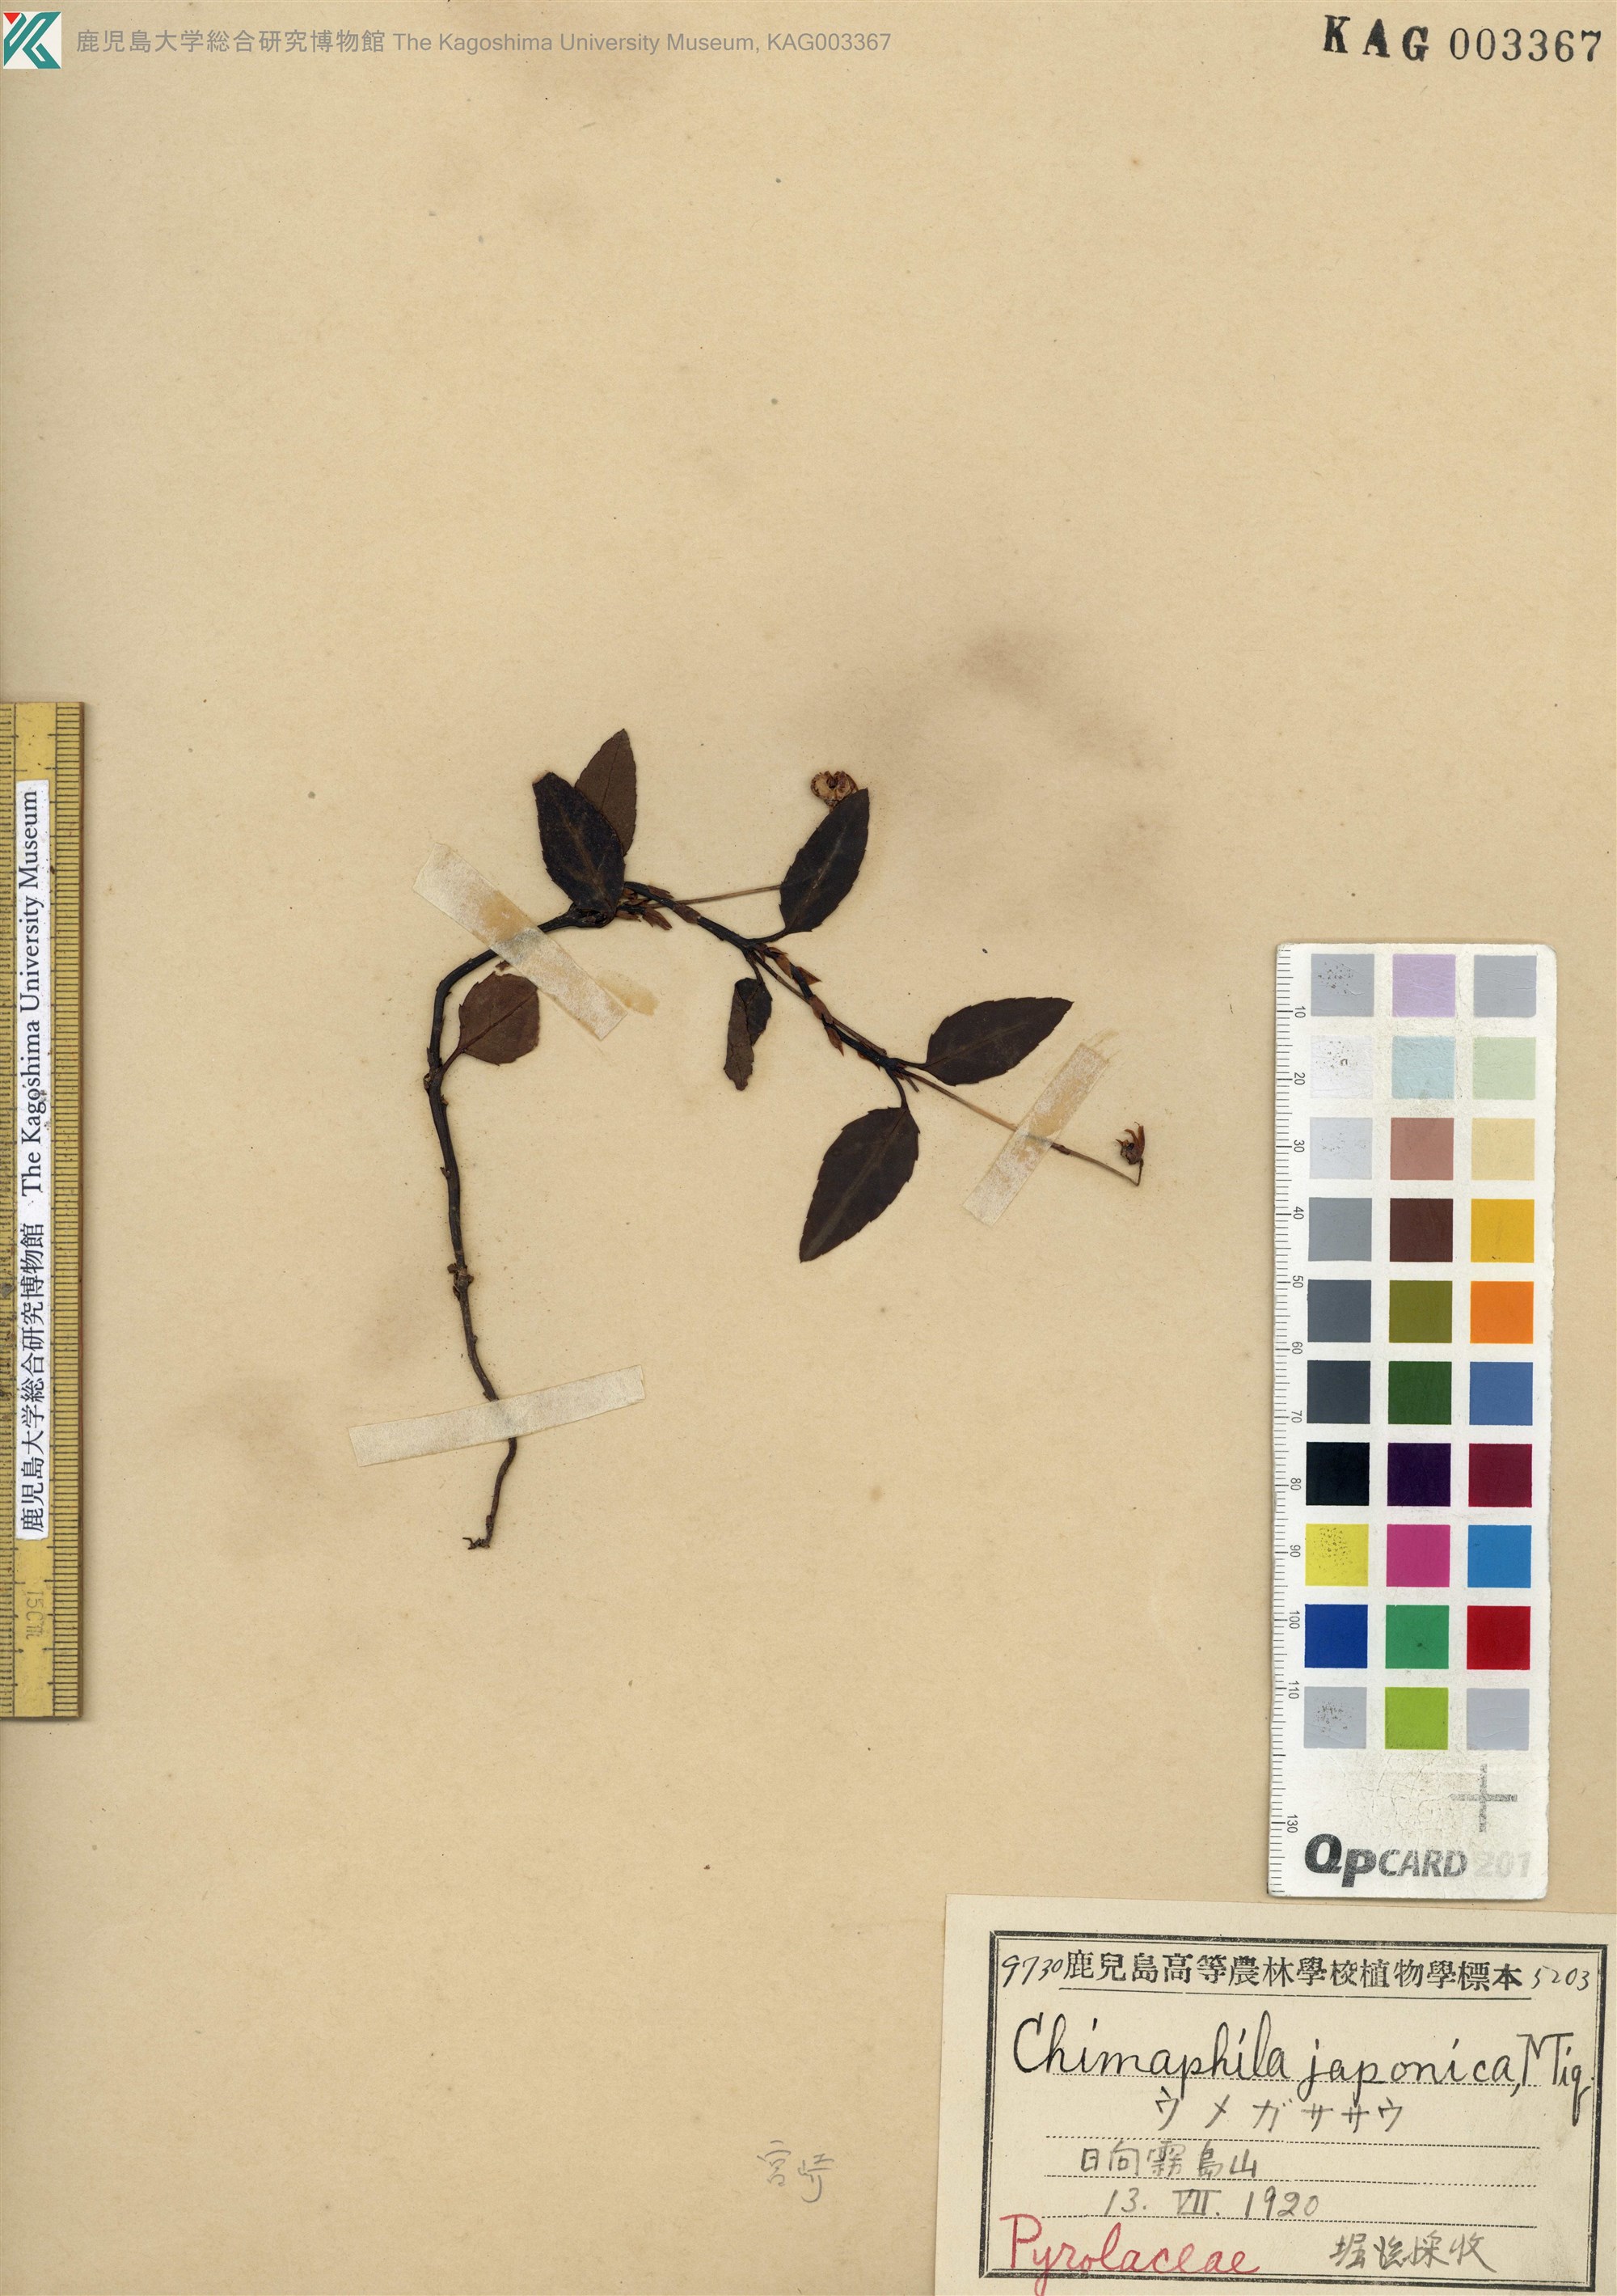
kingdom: Plantae
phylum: Tracheophyta
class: Magnoliopsida
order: Ericales
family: Ericaceae
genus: Chimaphila
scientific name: Chimaphila japonica
